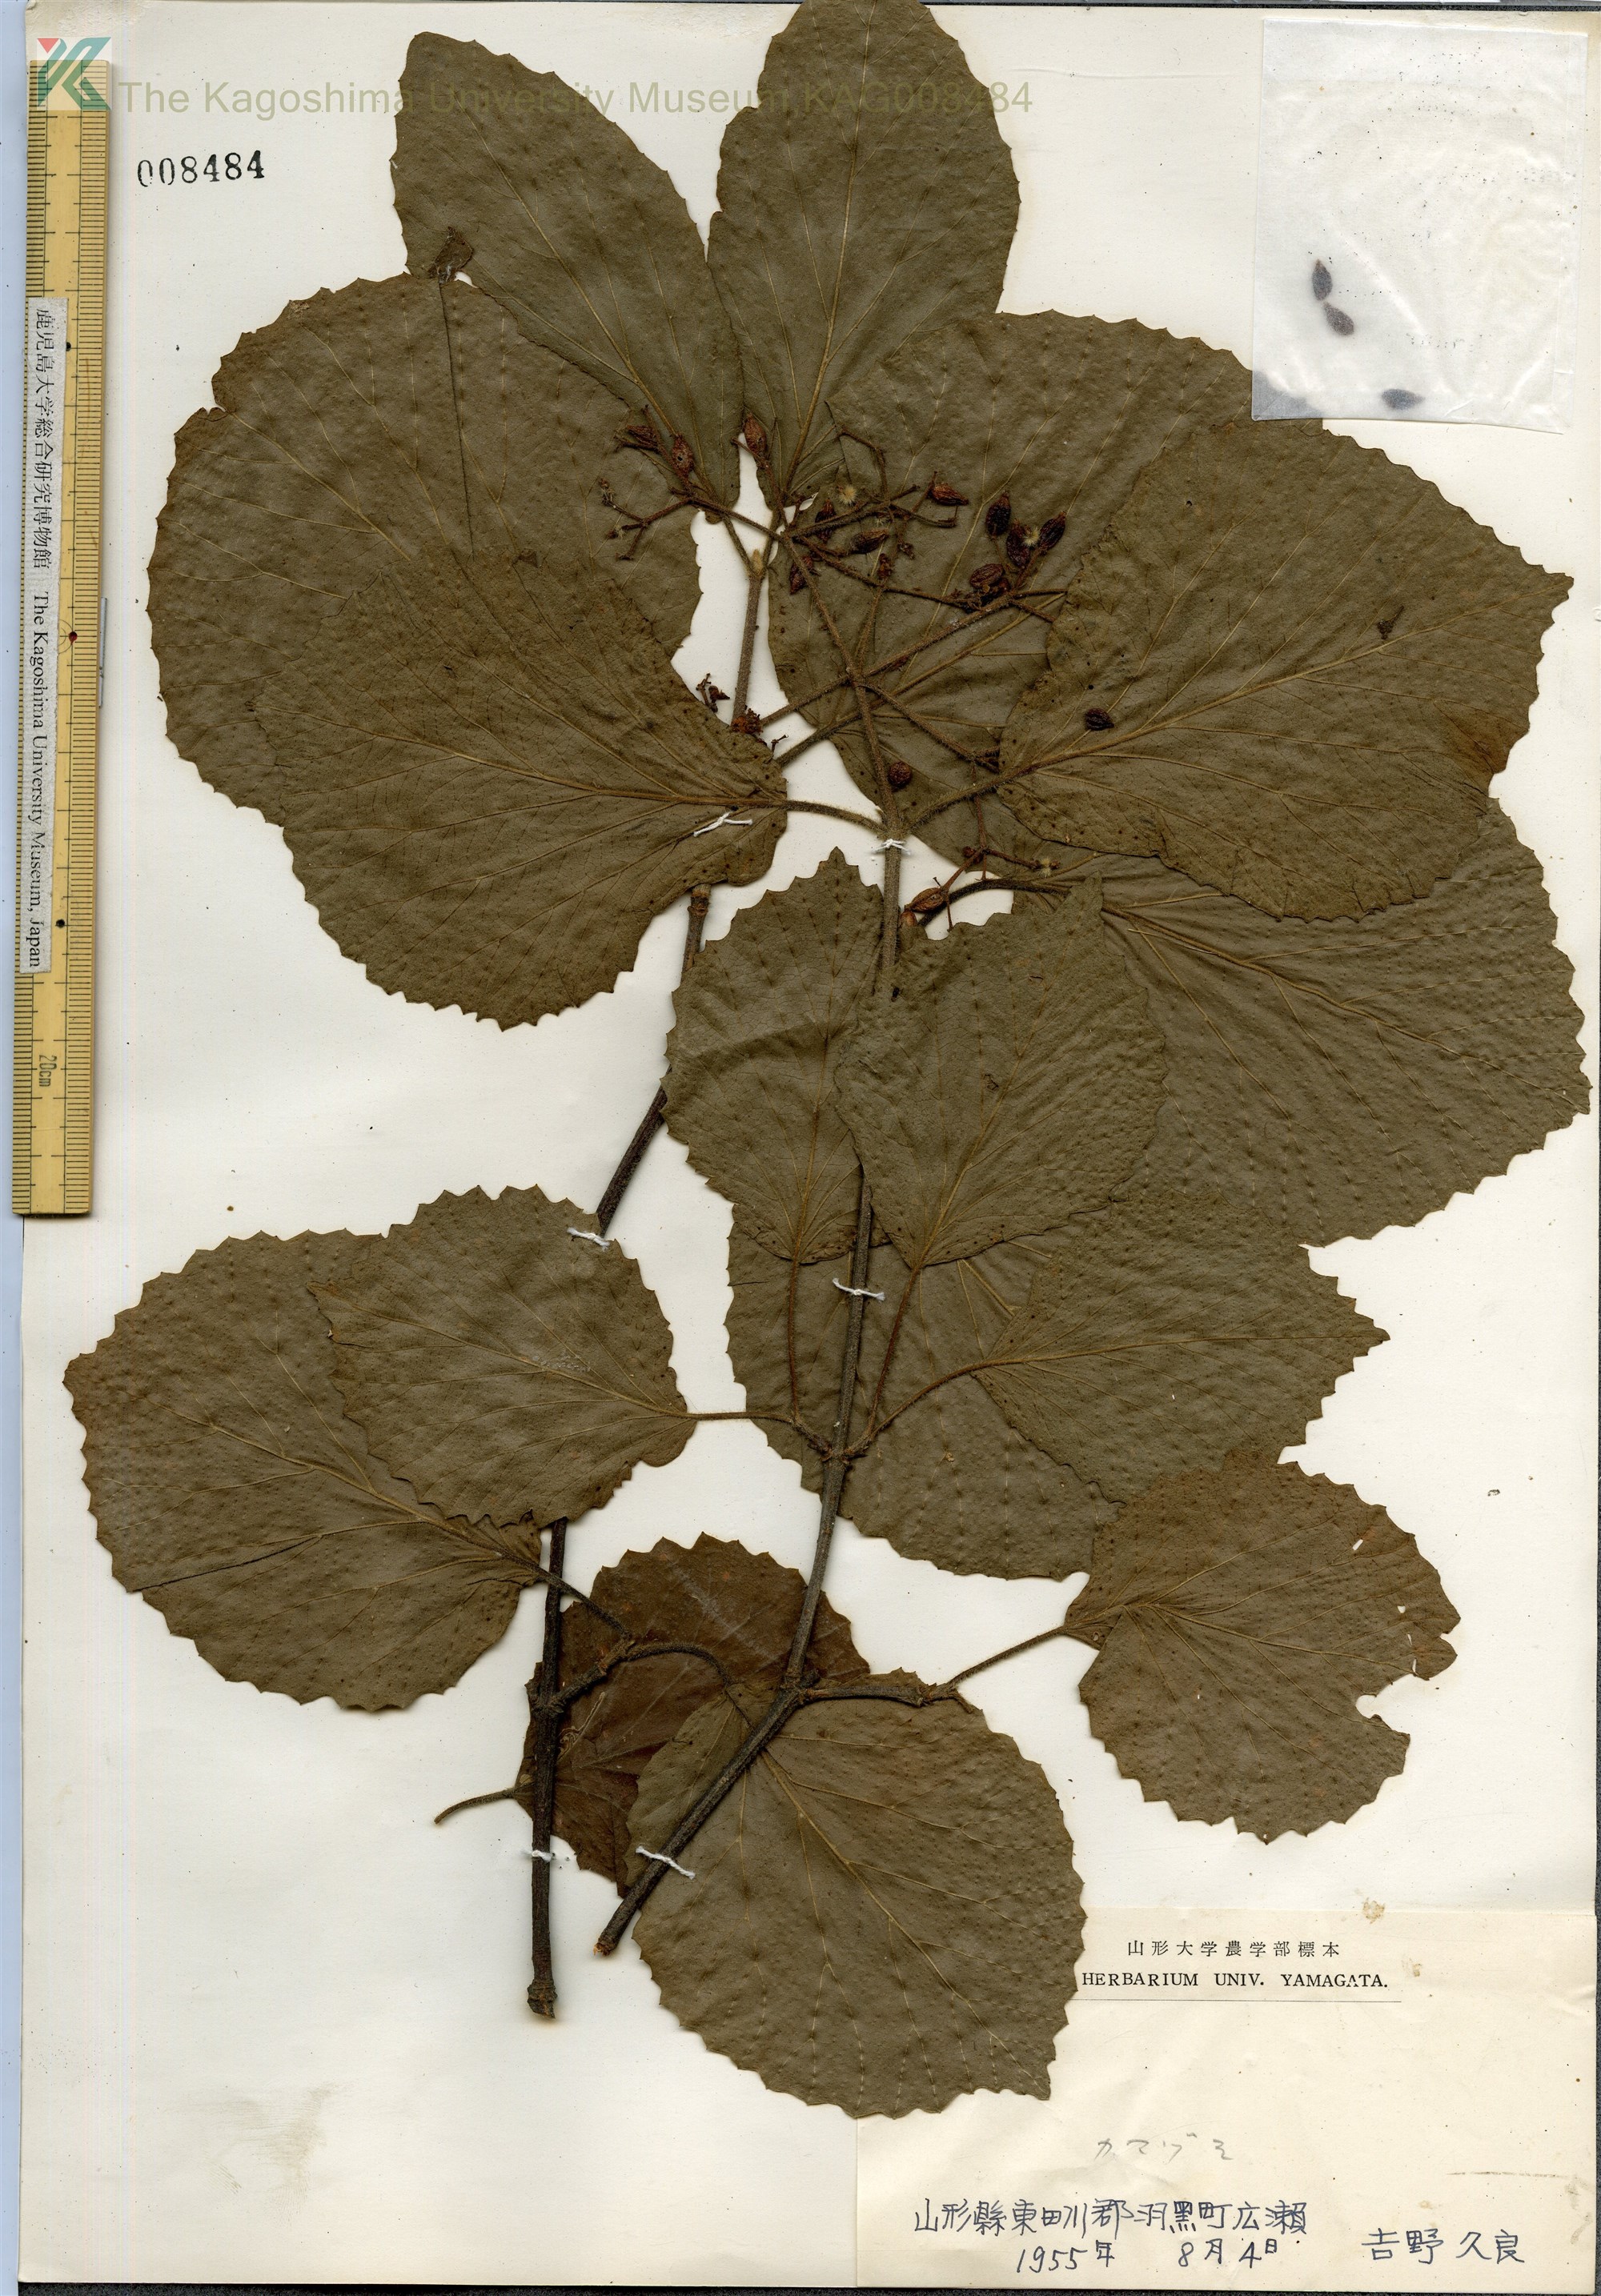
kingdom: Plantae
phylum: Tracheophyta
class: Magnoliopsida
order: Dipsacales
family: Viburnaceae
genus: Viburnum
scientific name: Viburnum dilatatum
